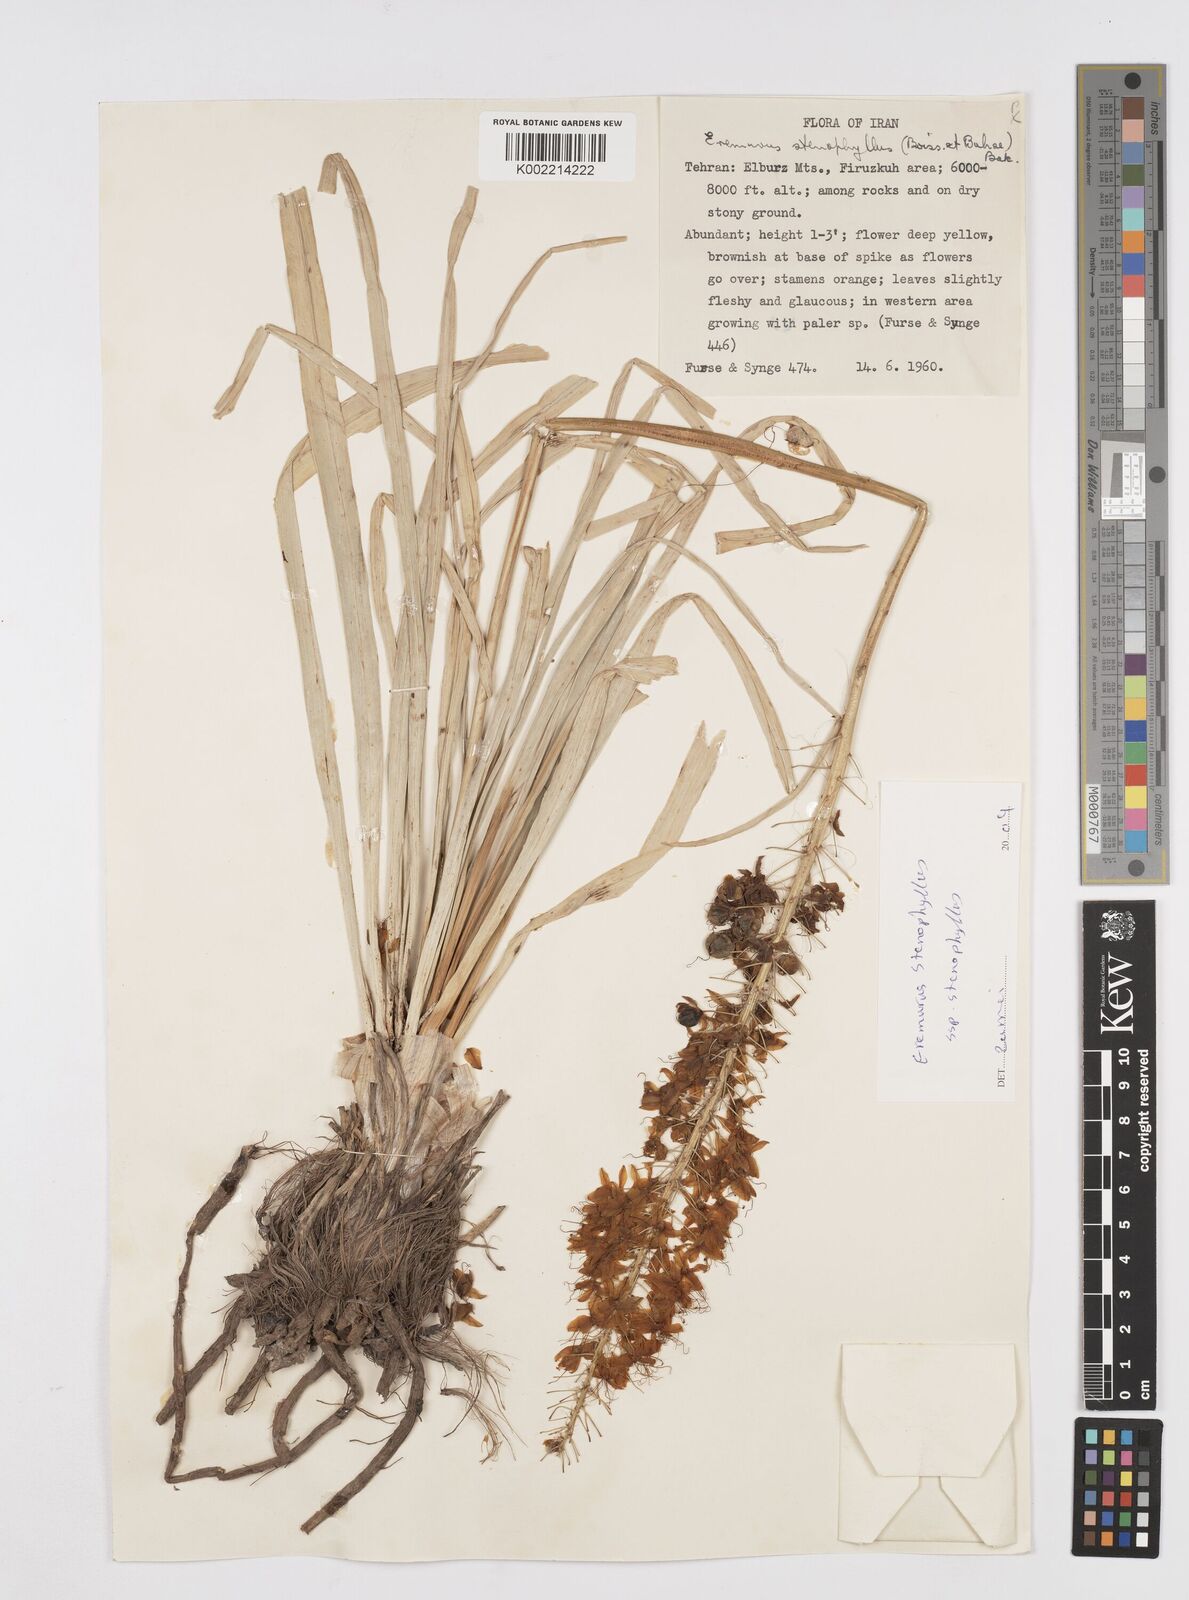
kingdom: Plantae
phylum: Tracheophyta
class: Liliopsida
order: Asparagales
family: Asphodelaceae
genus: Eremurus
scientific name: Eremurus stenophyllus
